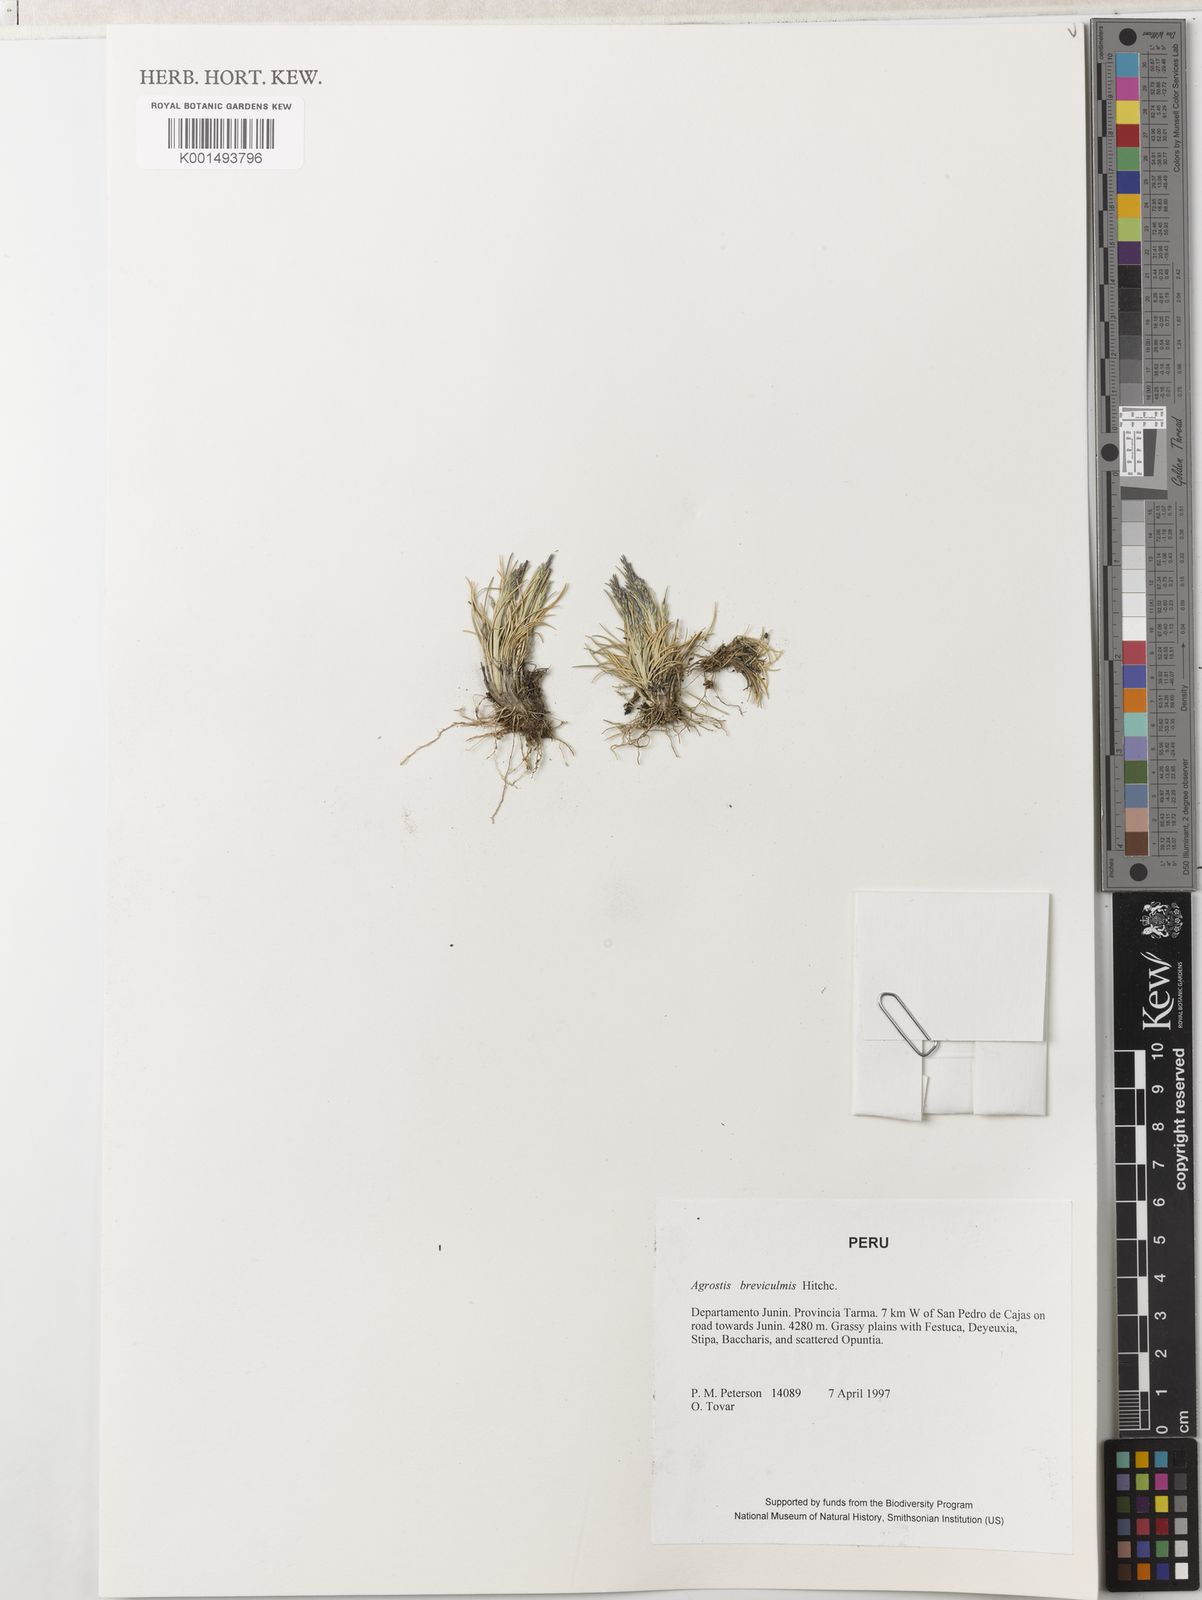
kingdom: Plantae
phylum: Tracheophyta
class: Liliopsida
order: Poales
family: Poaceae
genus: Agrostis
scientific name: Agrostis breviculmis
